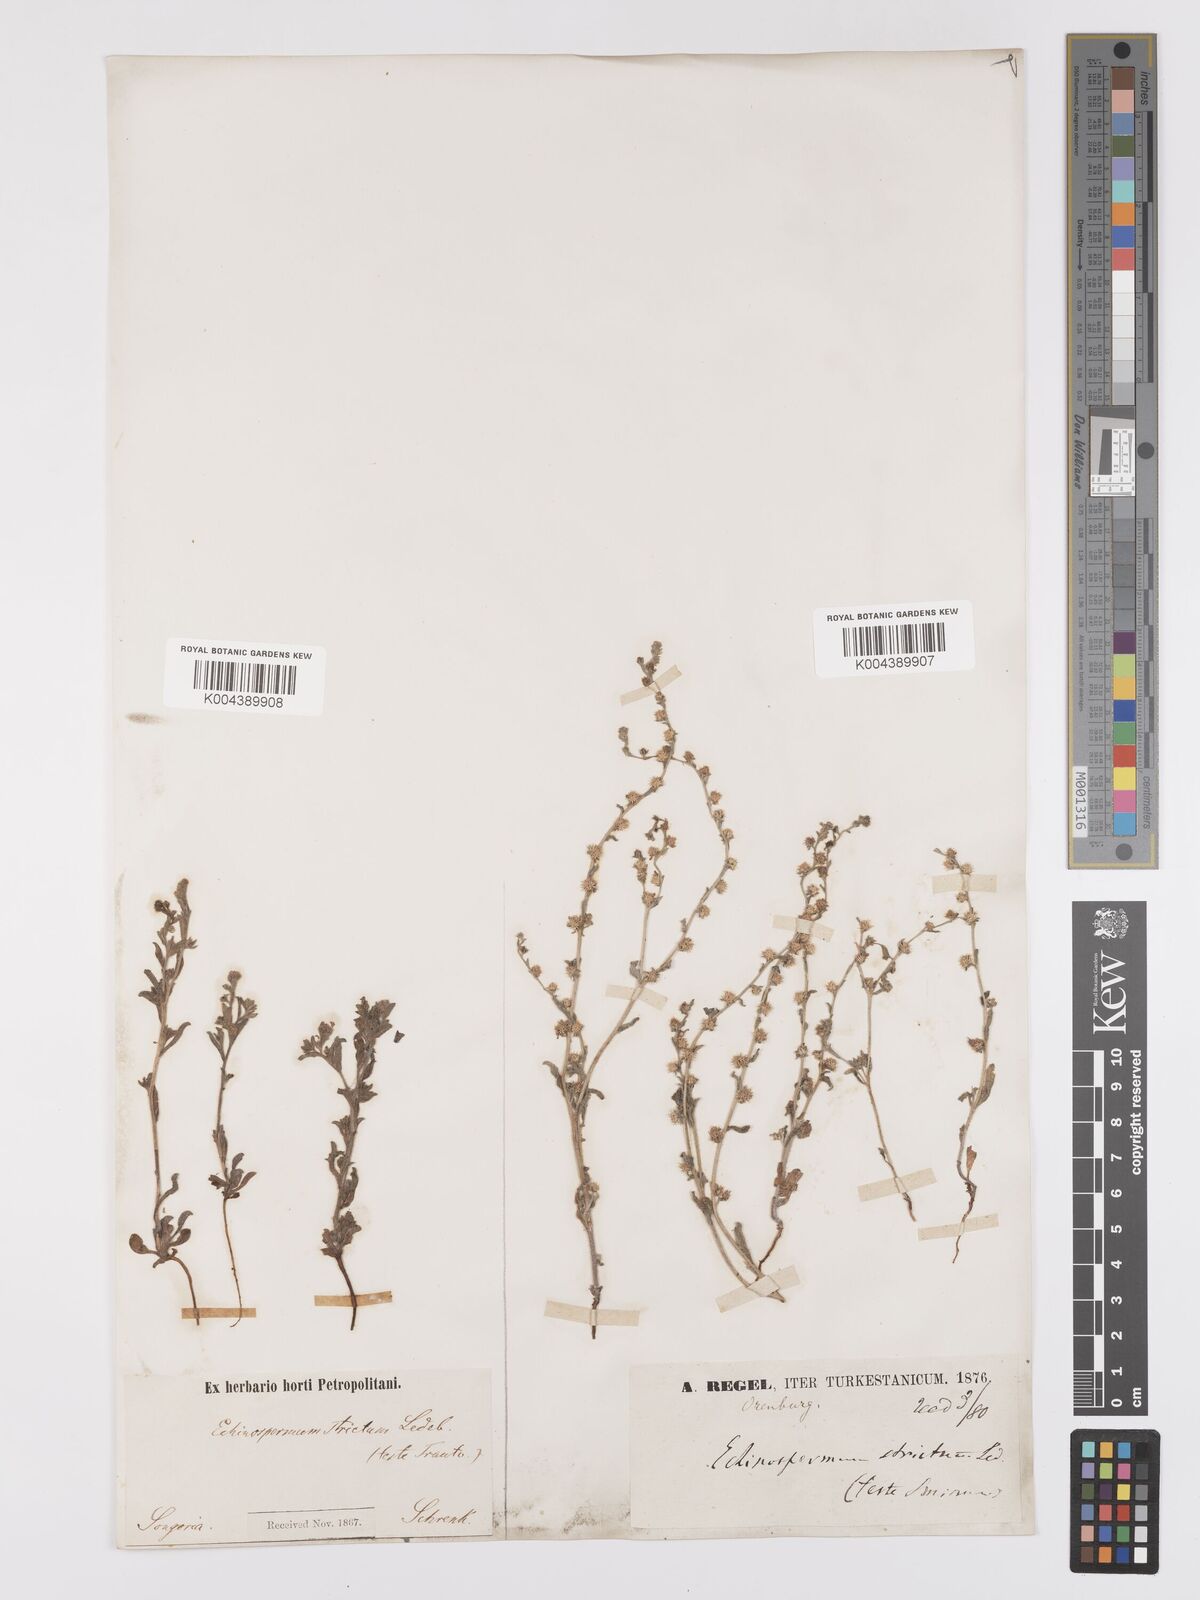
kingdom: Plantae
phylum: Tracheophyta
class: Magnoliopsida
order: Boraginales
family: Boraginaceae
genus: Lappula
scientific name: Lappula stricta
